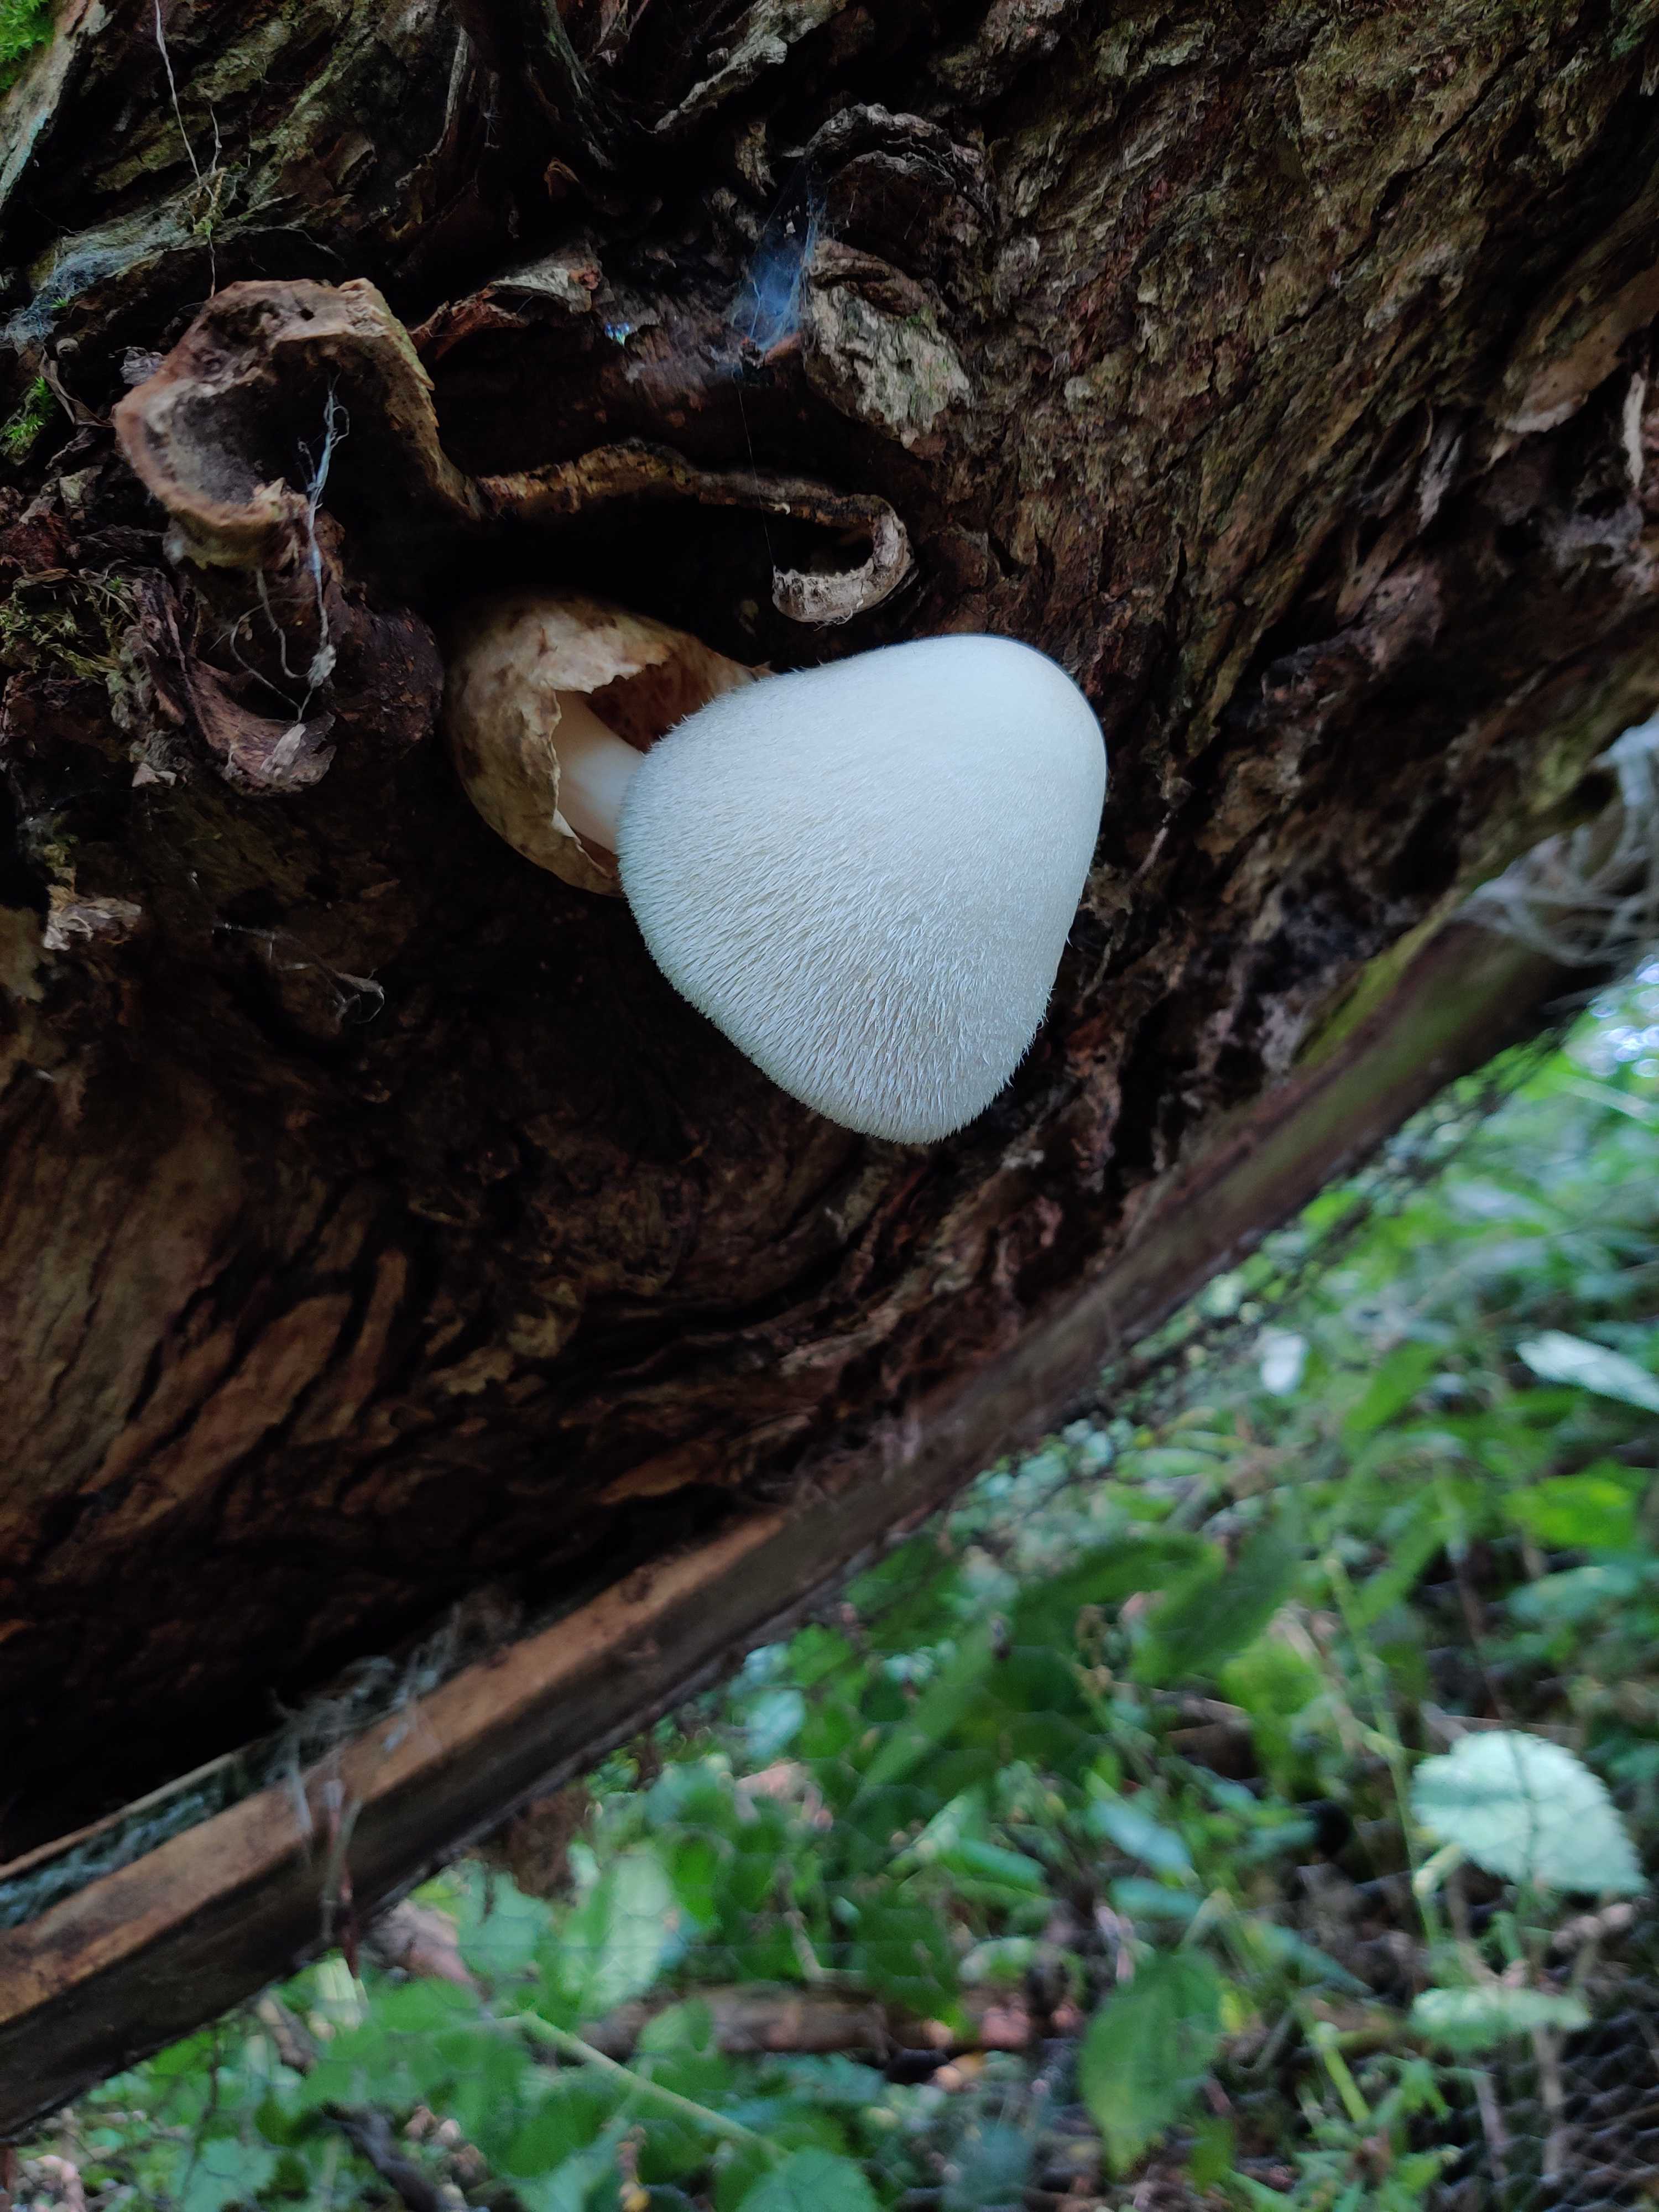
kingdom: Fungi
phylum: Basidiomycota
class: Agaricomycetes
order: Agaricales
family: Pluteaceae
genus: Volvariella
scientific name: Volvariella bombycina
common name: silkehåret posesvamp
